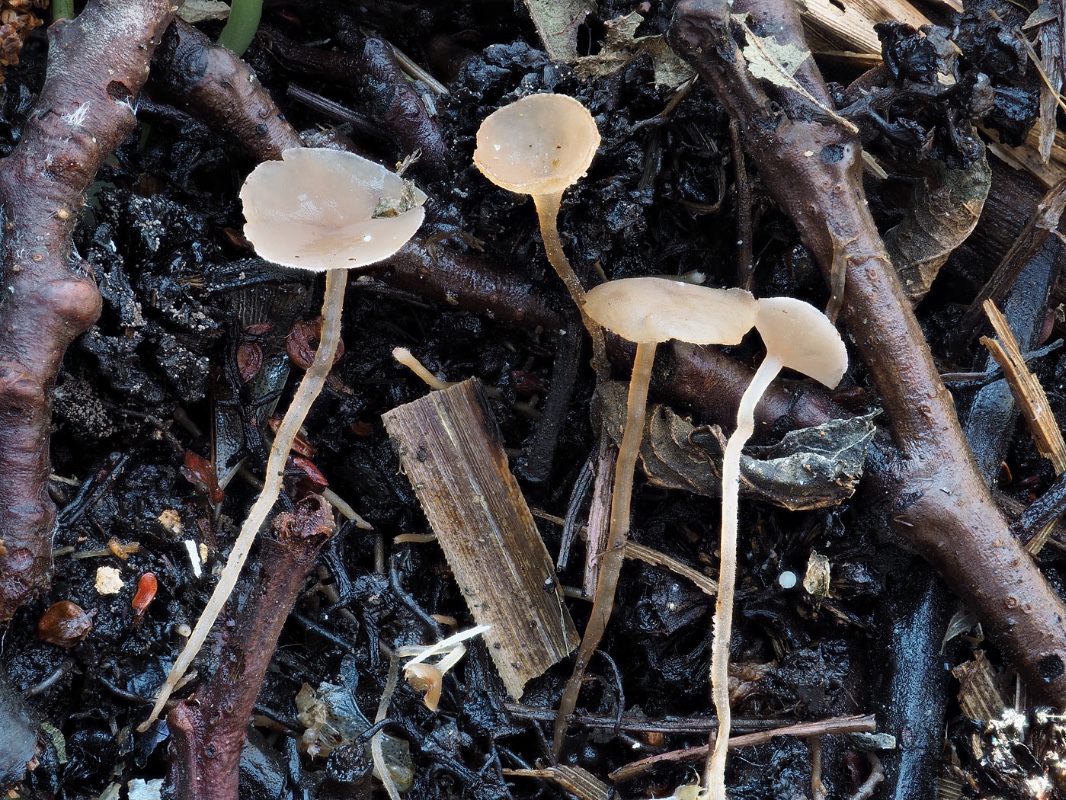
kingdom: Fungi
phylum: Ascomycota
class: Leotiomycetes
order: Helotiales
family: Sclerotiniaceae
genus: Ciboria
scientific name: Ciboria amentacea
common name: ellerakle-knoldskive
